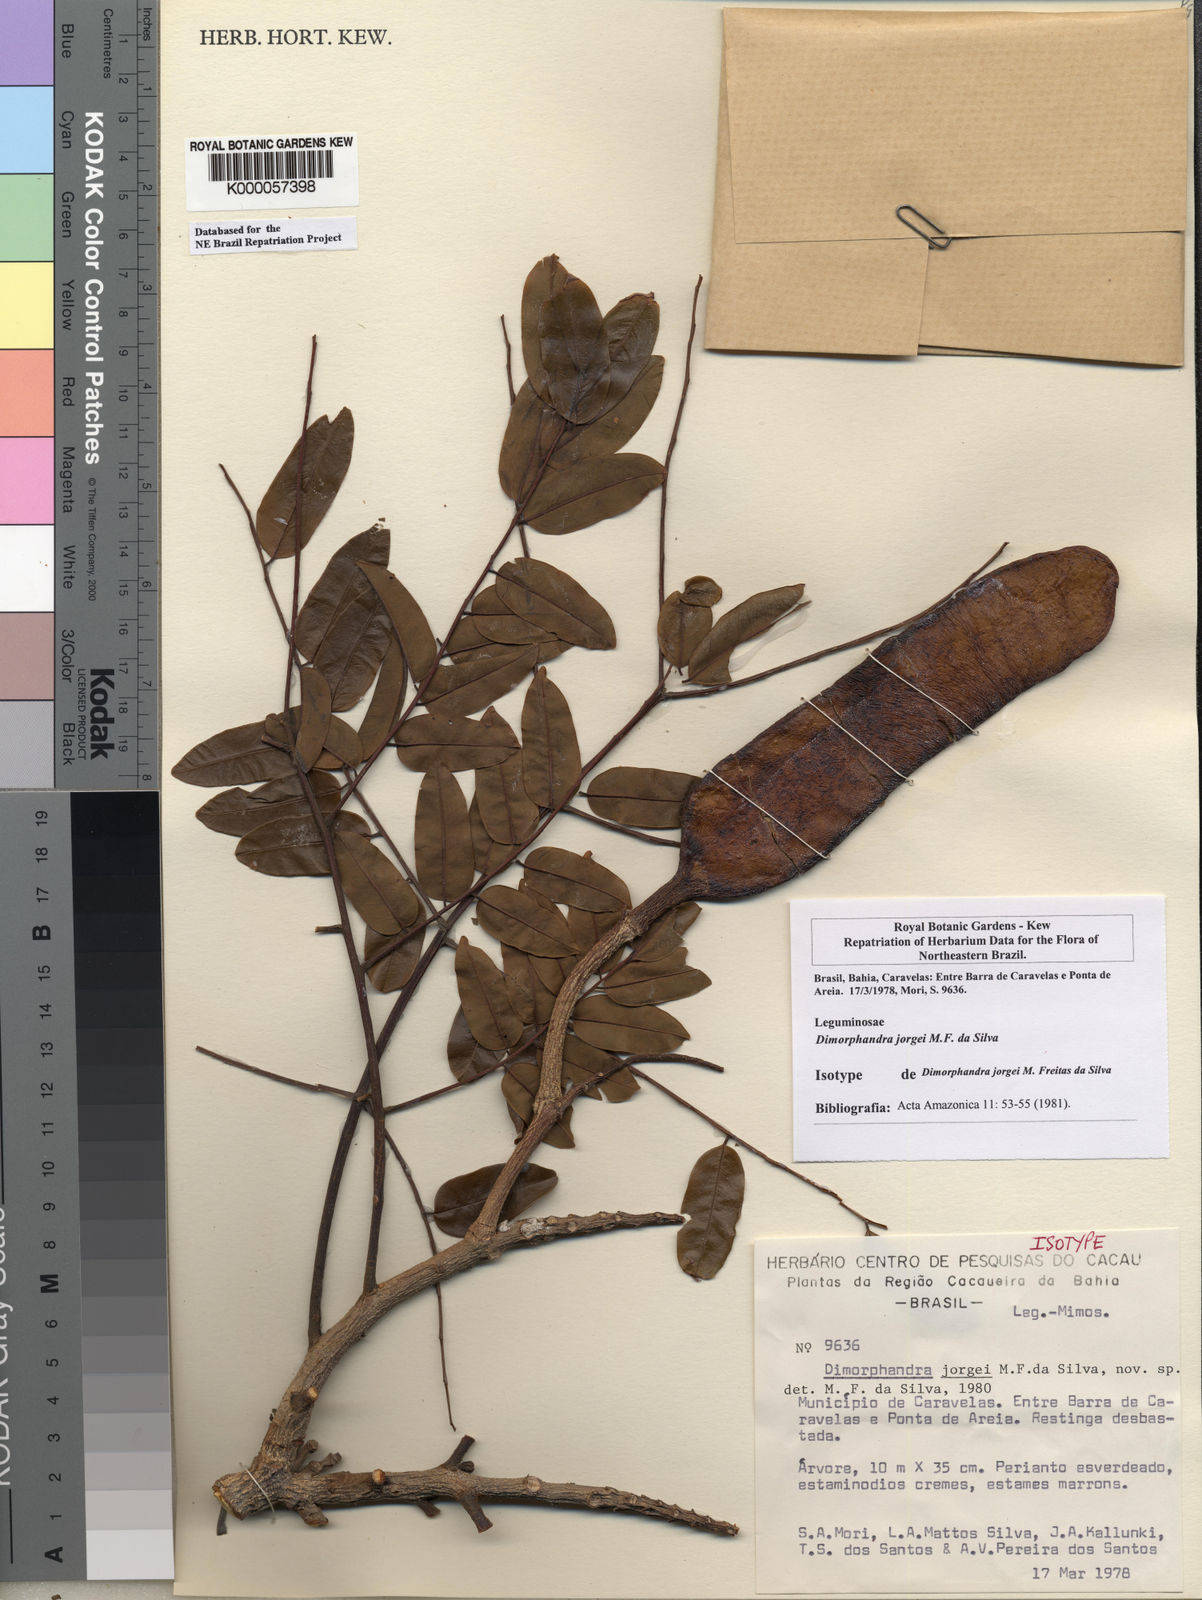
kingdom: Plantae
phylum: Tracheophyta
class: Magnoliopsida
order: Fabales
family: Fabaceae
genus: Dimorphandra
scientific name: Dimorphandra jorgei
